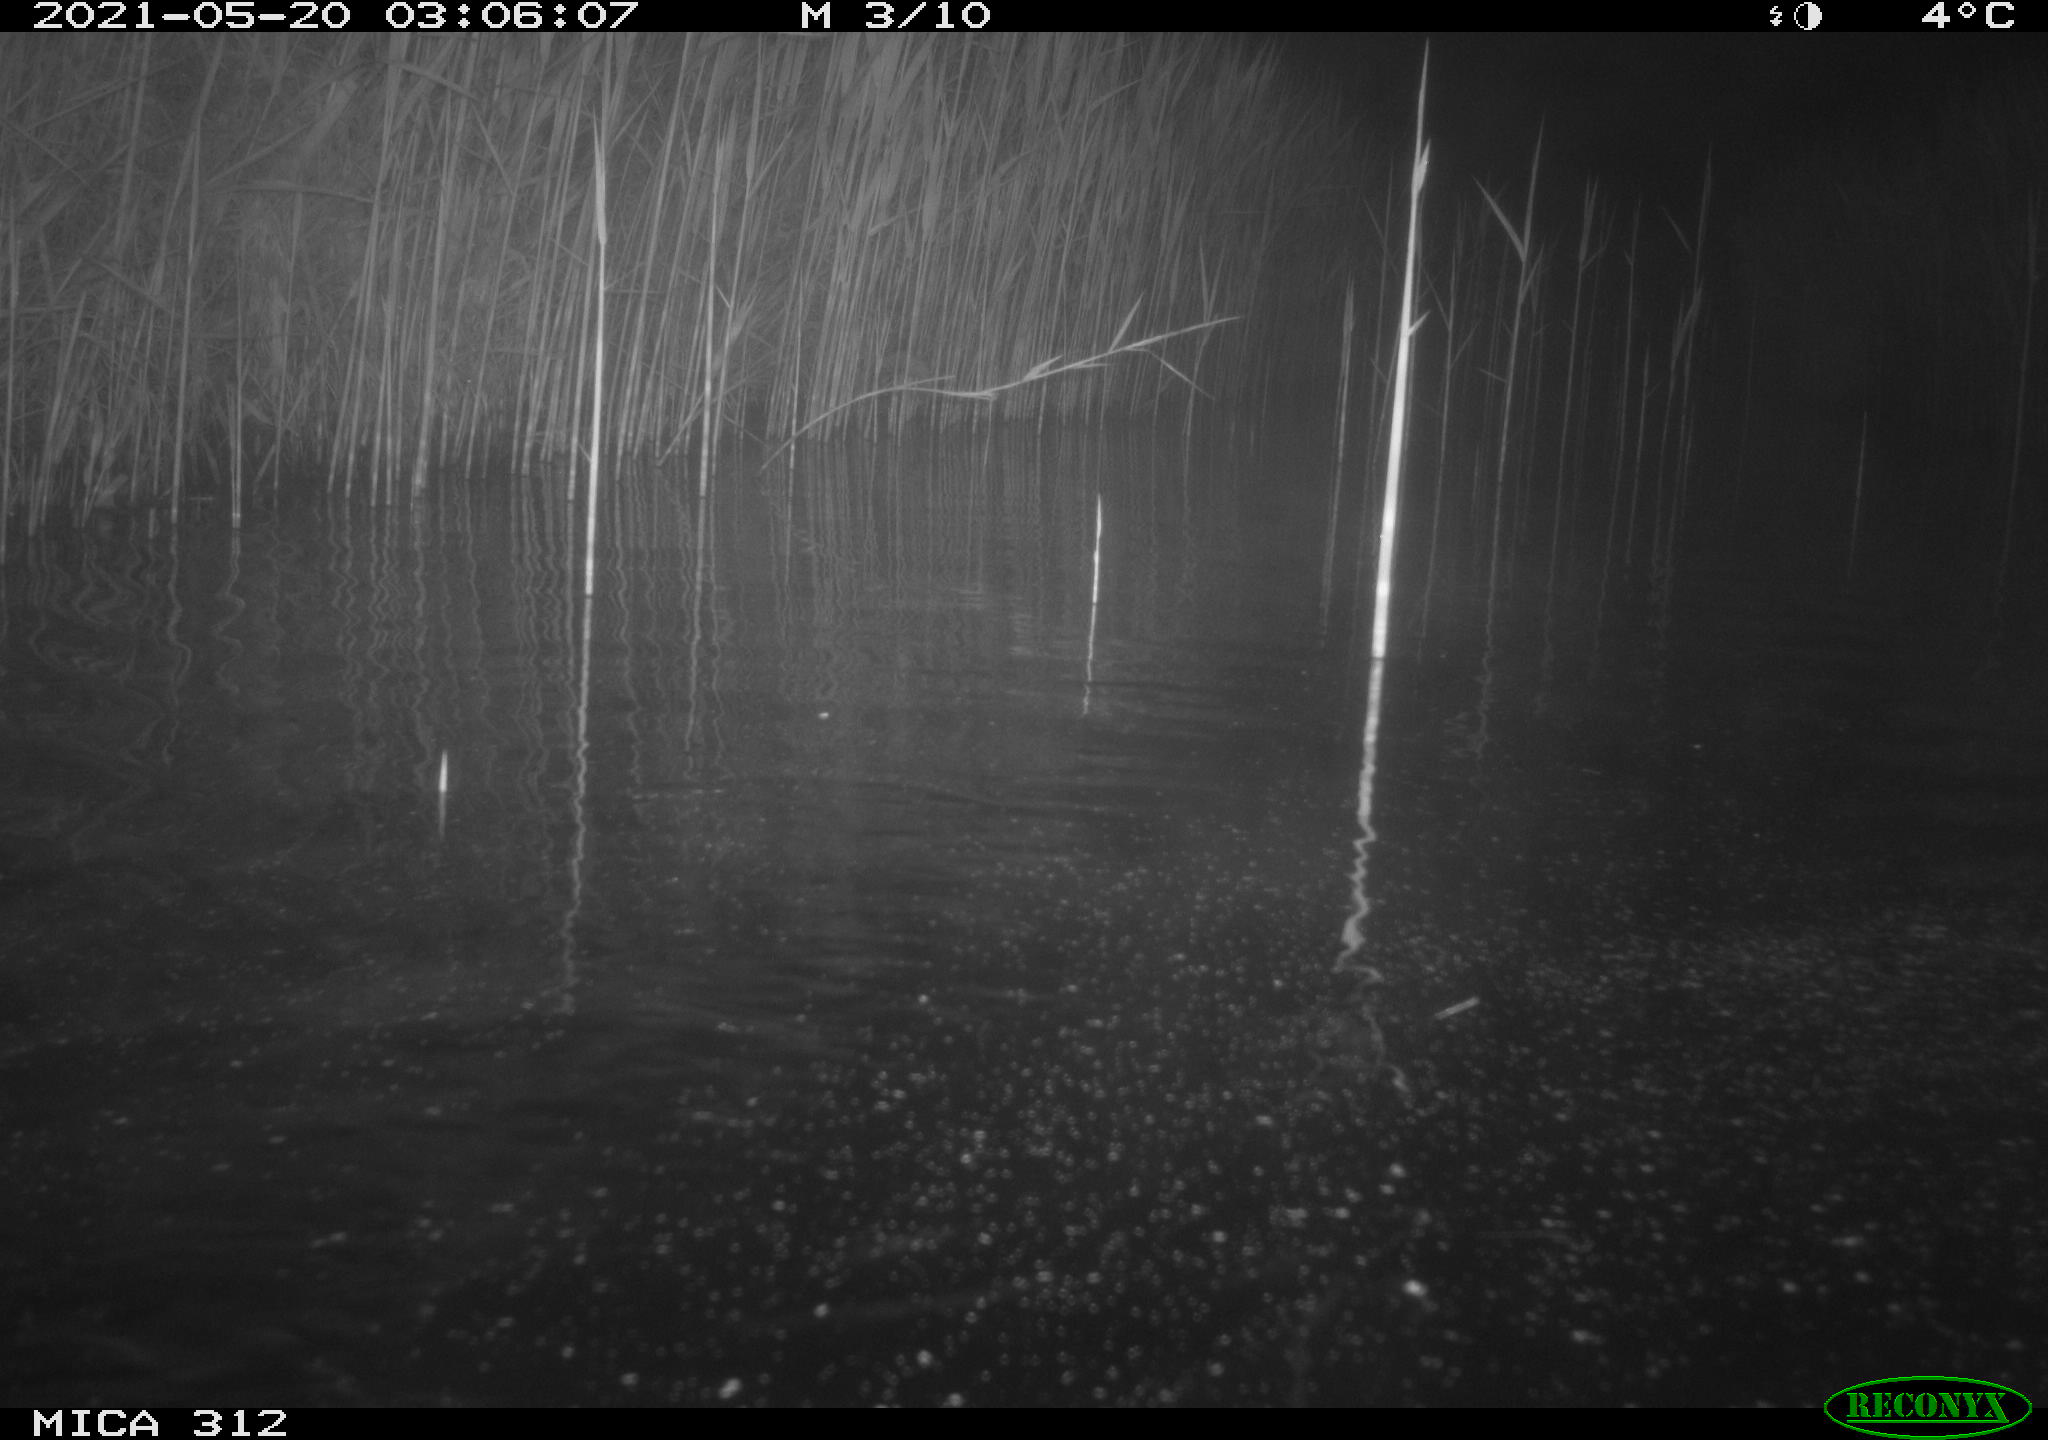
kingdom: Animalia
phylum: Chordata
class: Mammalia
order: Rodentia
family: Cricetidae
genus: Ondatra
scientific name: Ondatra zibethicus
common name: Muskrat
